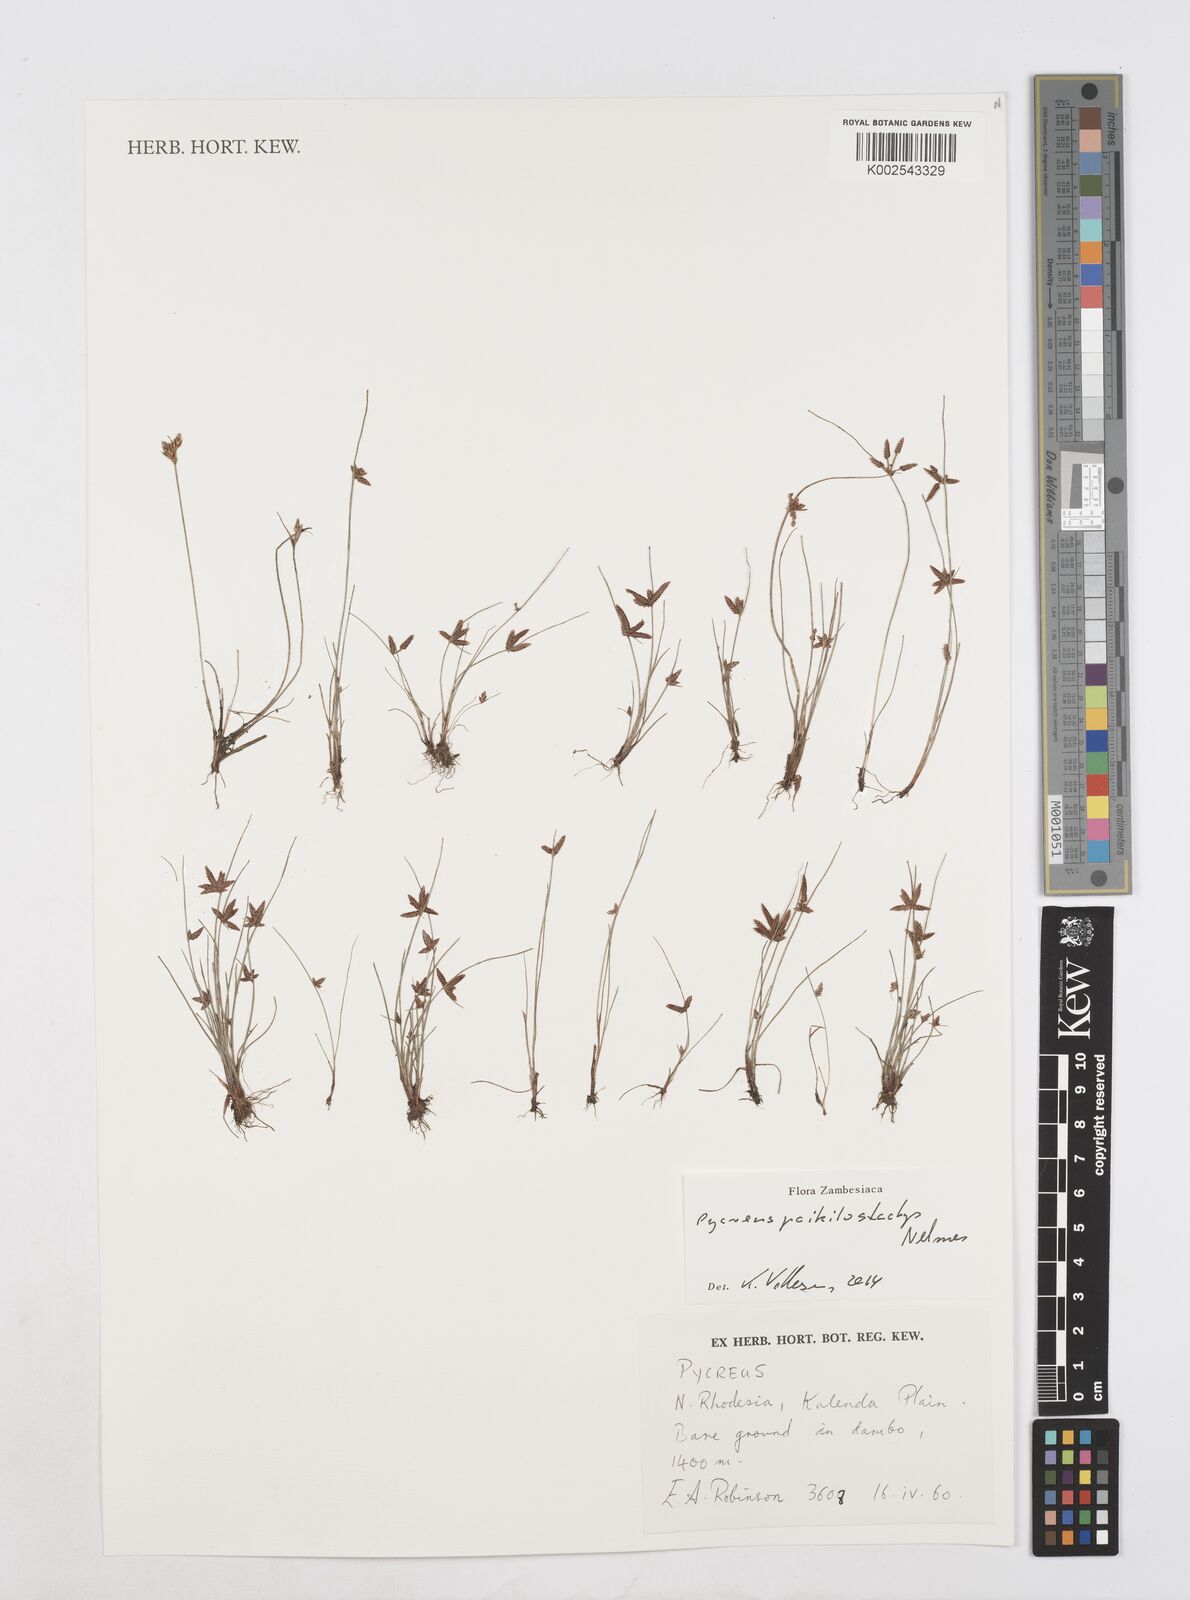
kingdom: Plantae
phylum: Tracheophyta
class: Liliopsida
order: Poales
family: Cyperaceae
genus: Cyperus
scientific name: Cyperus poikilostachys
